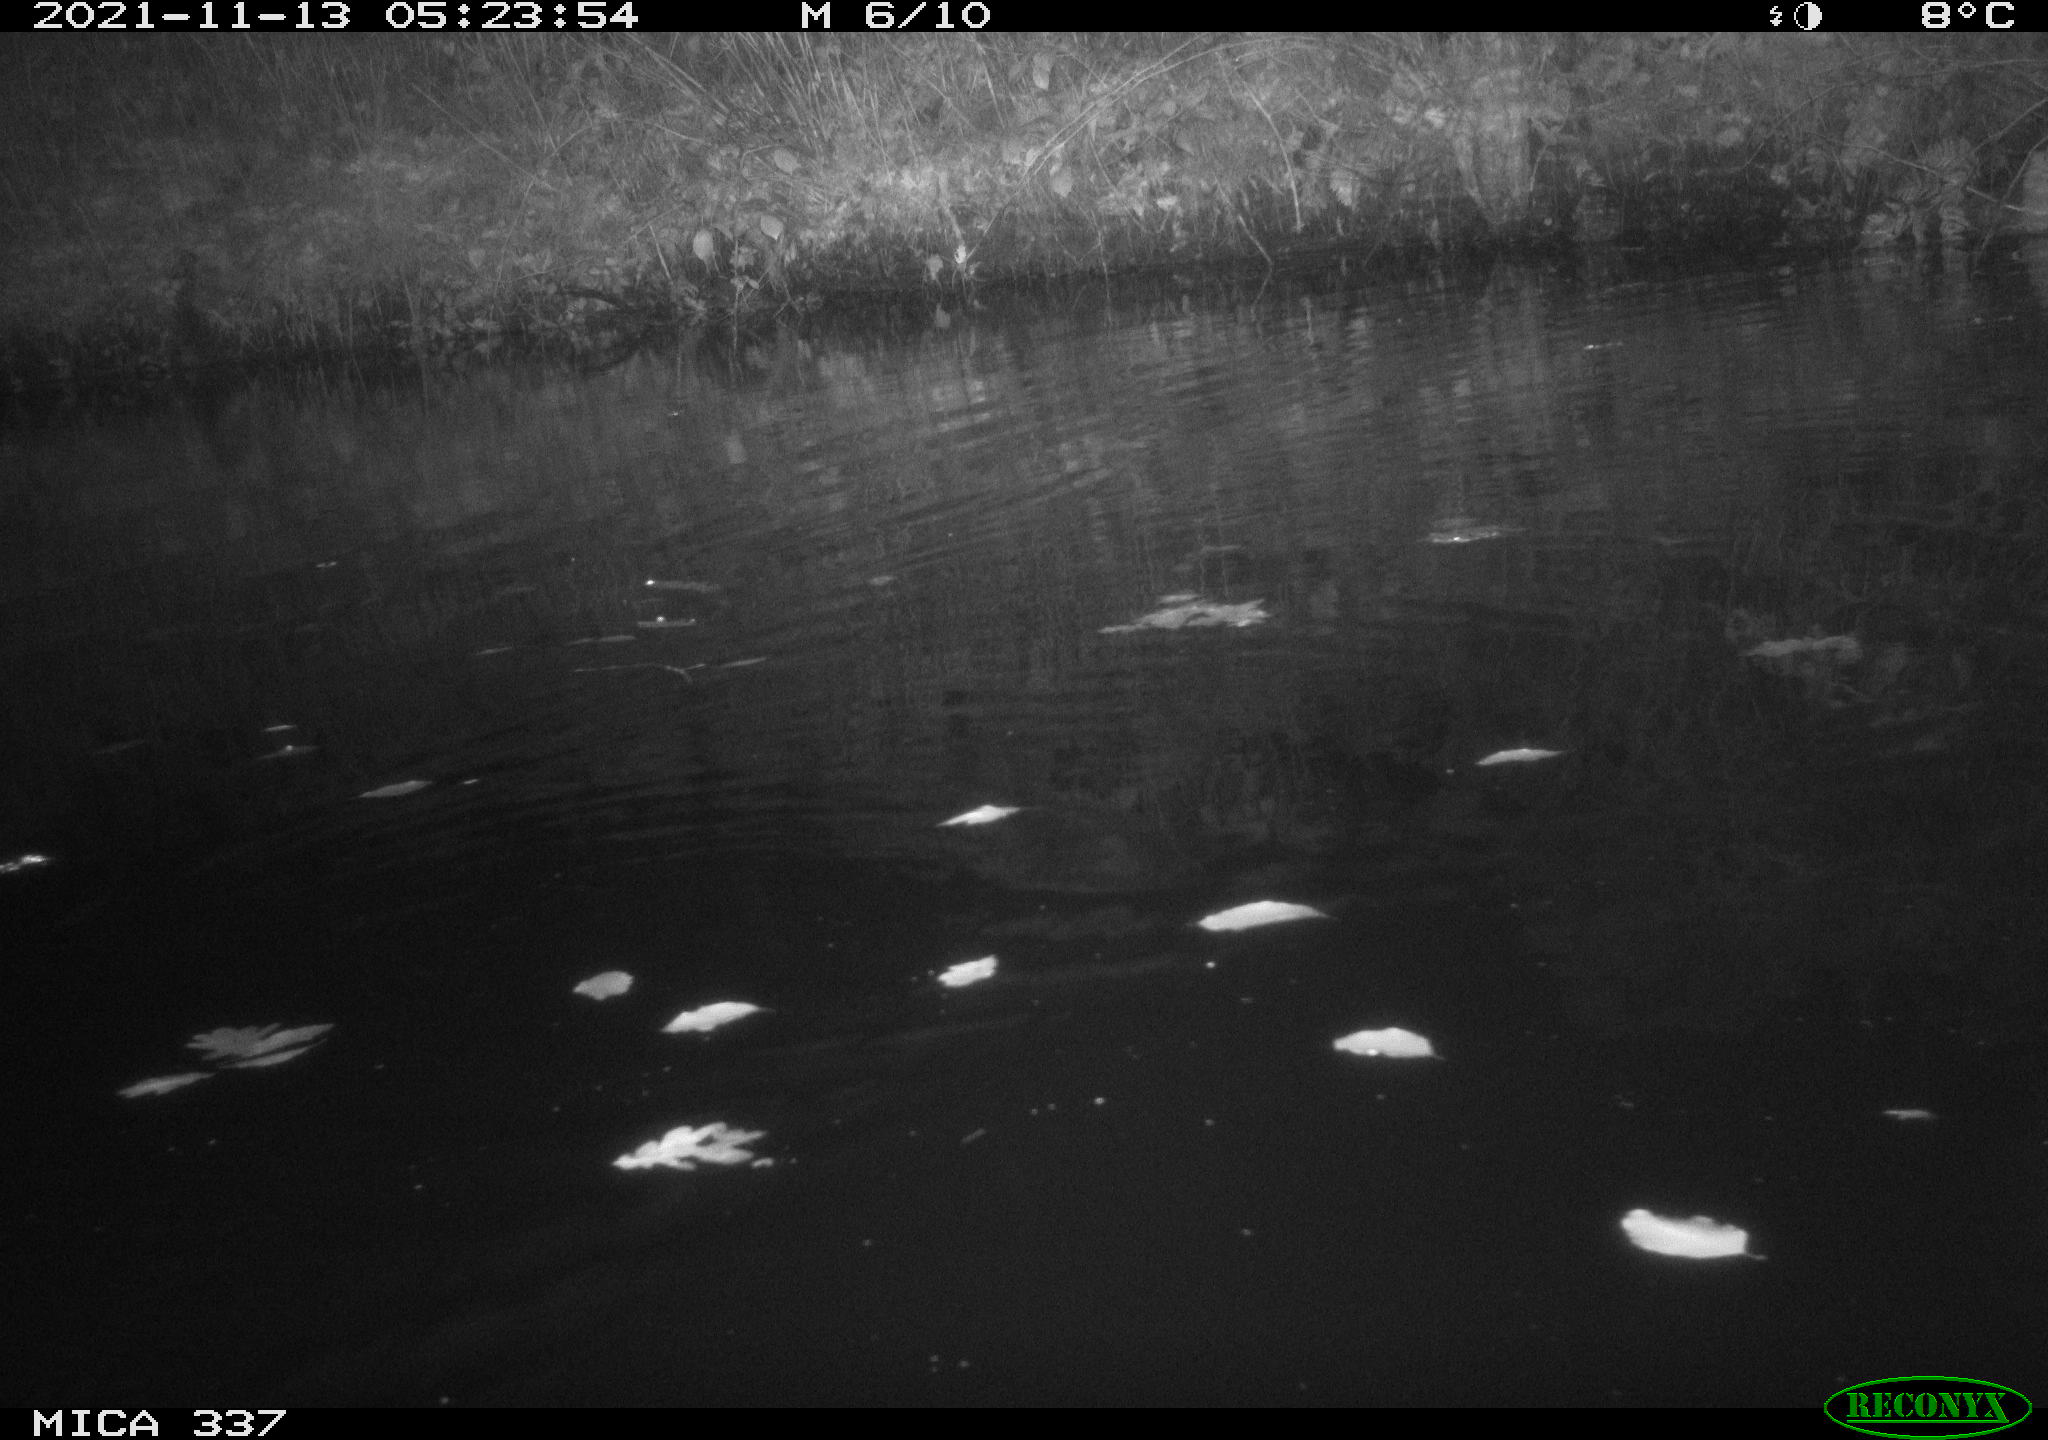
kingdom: Animalia
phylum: Chordata
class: Mammalia
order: Rodentia
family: Muridae
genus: Rattus
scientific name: Rattus norvegicus
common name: Brown rat
